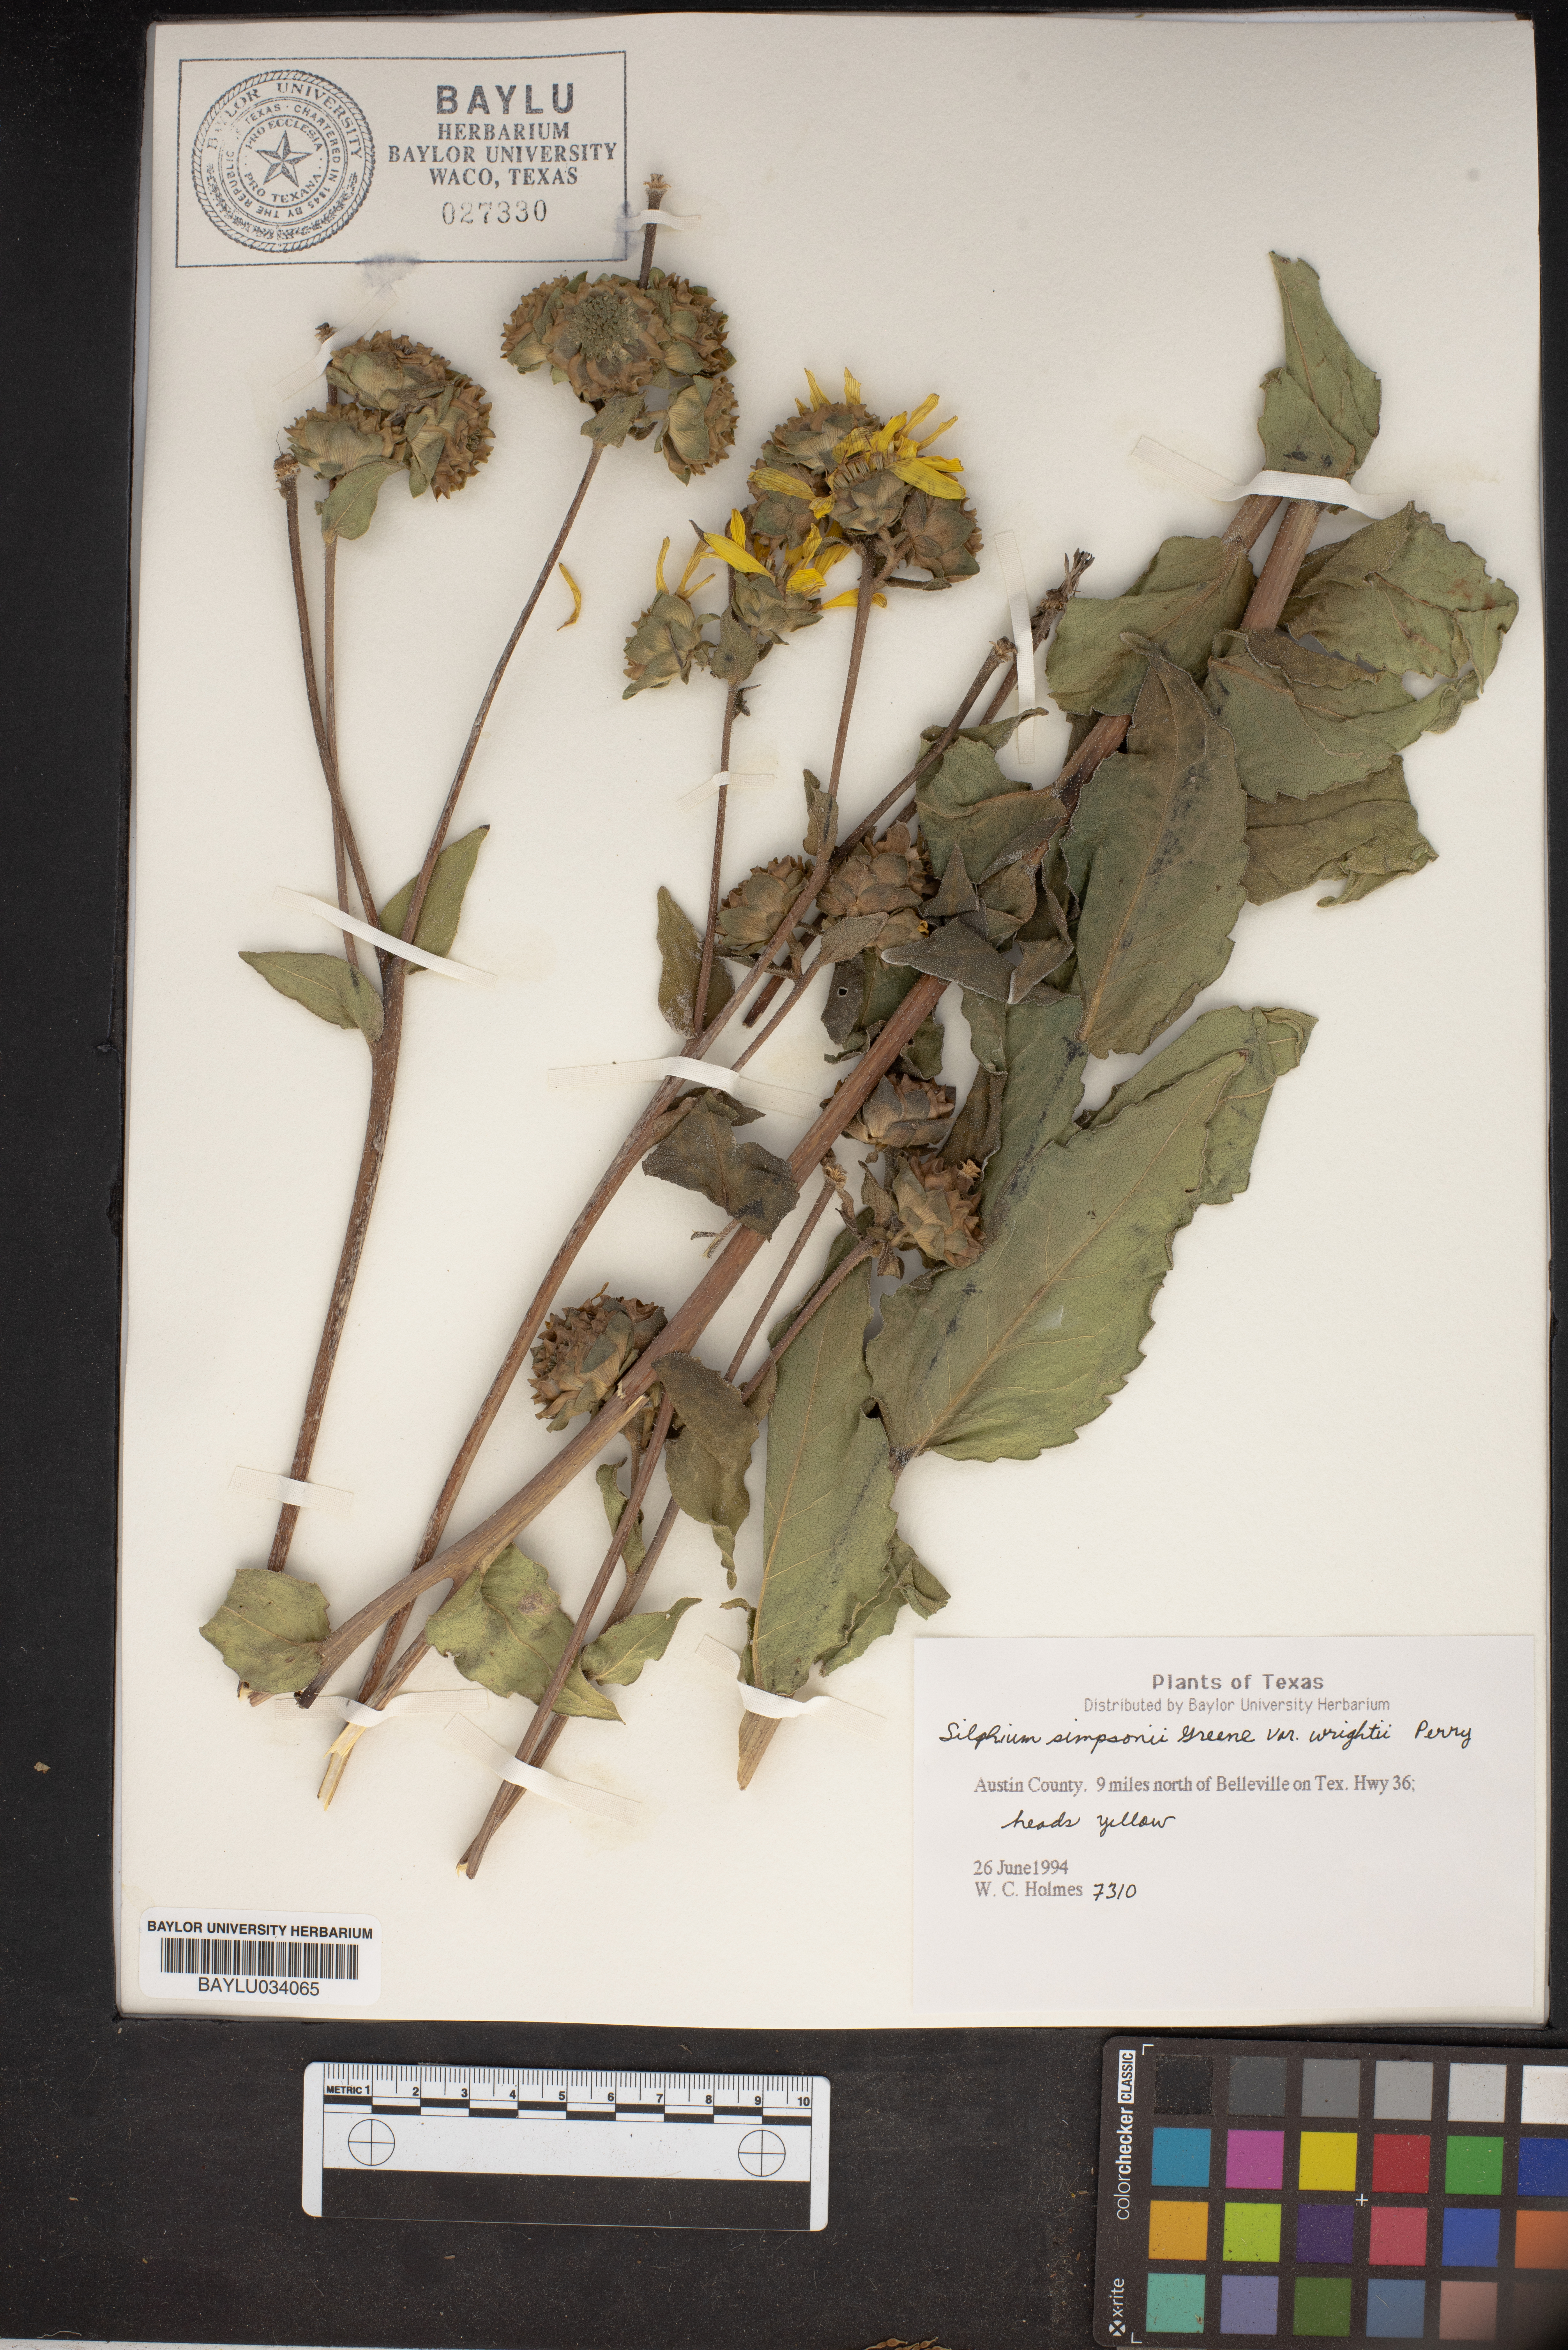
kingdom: Plantae
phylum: Tracheophyta
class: Magnoliopsida
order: Asterales
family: Asteraceae
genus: Silphium
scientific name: Silphium asteriscus
